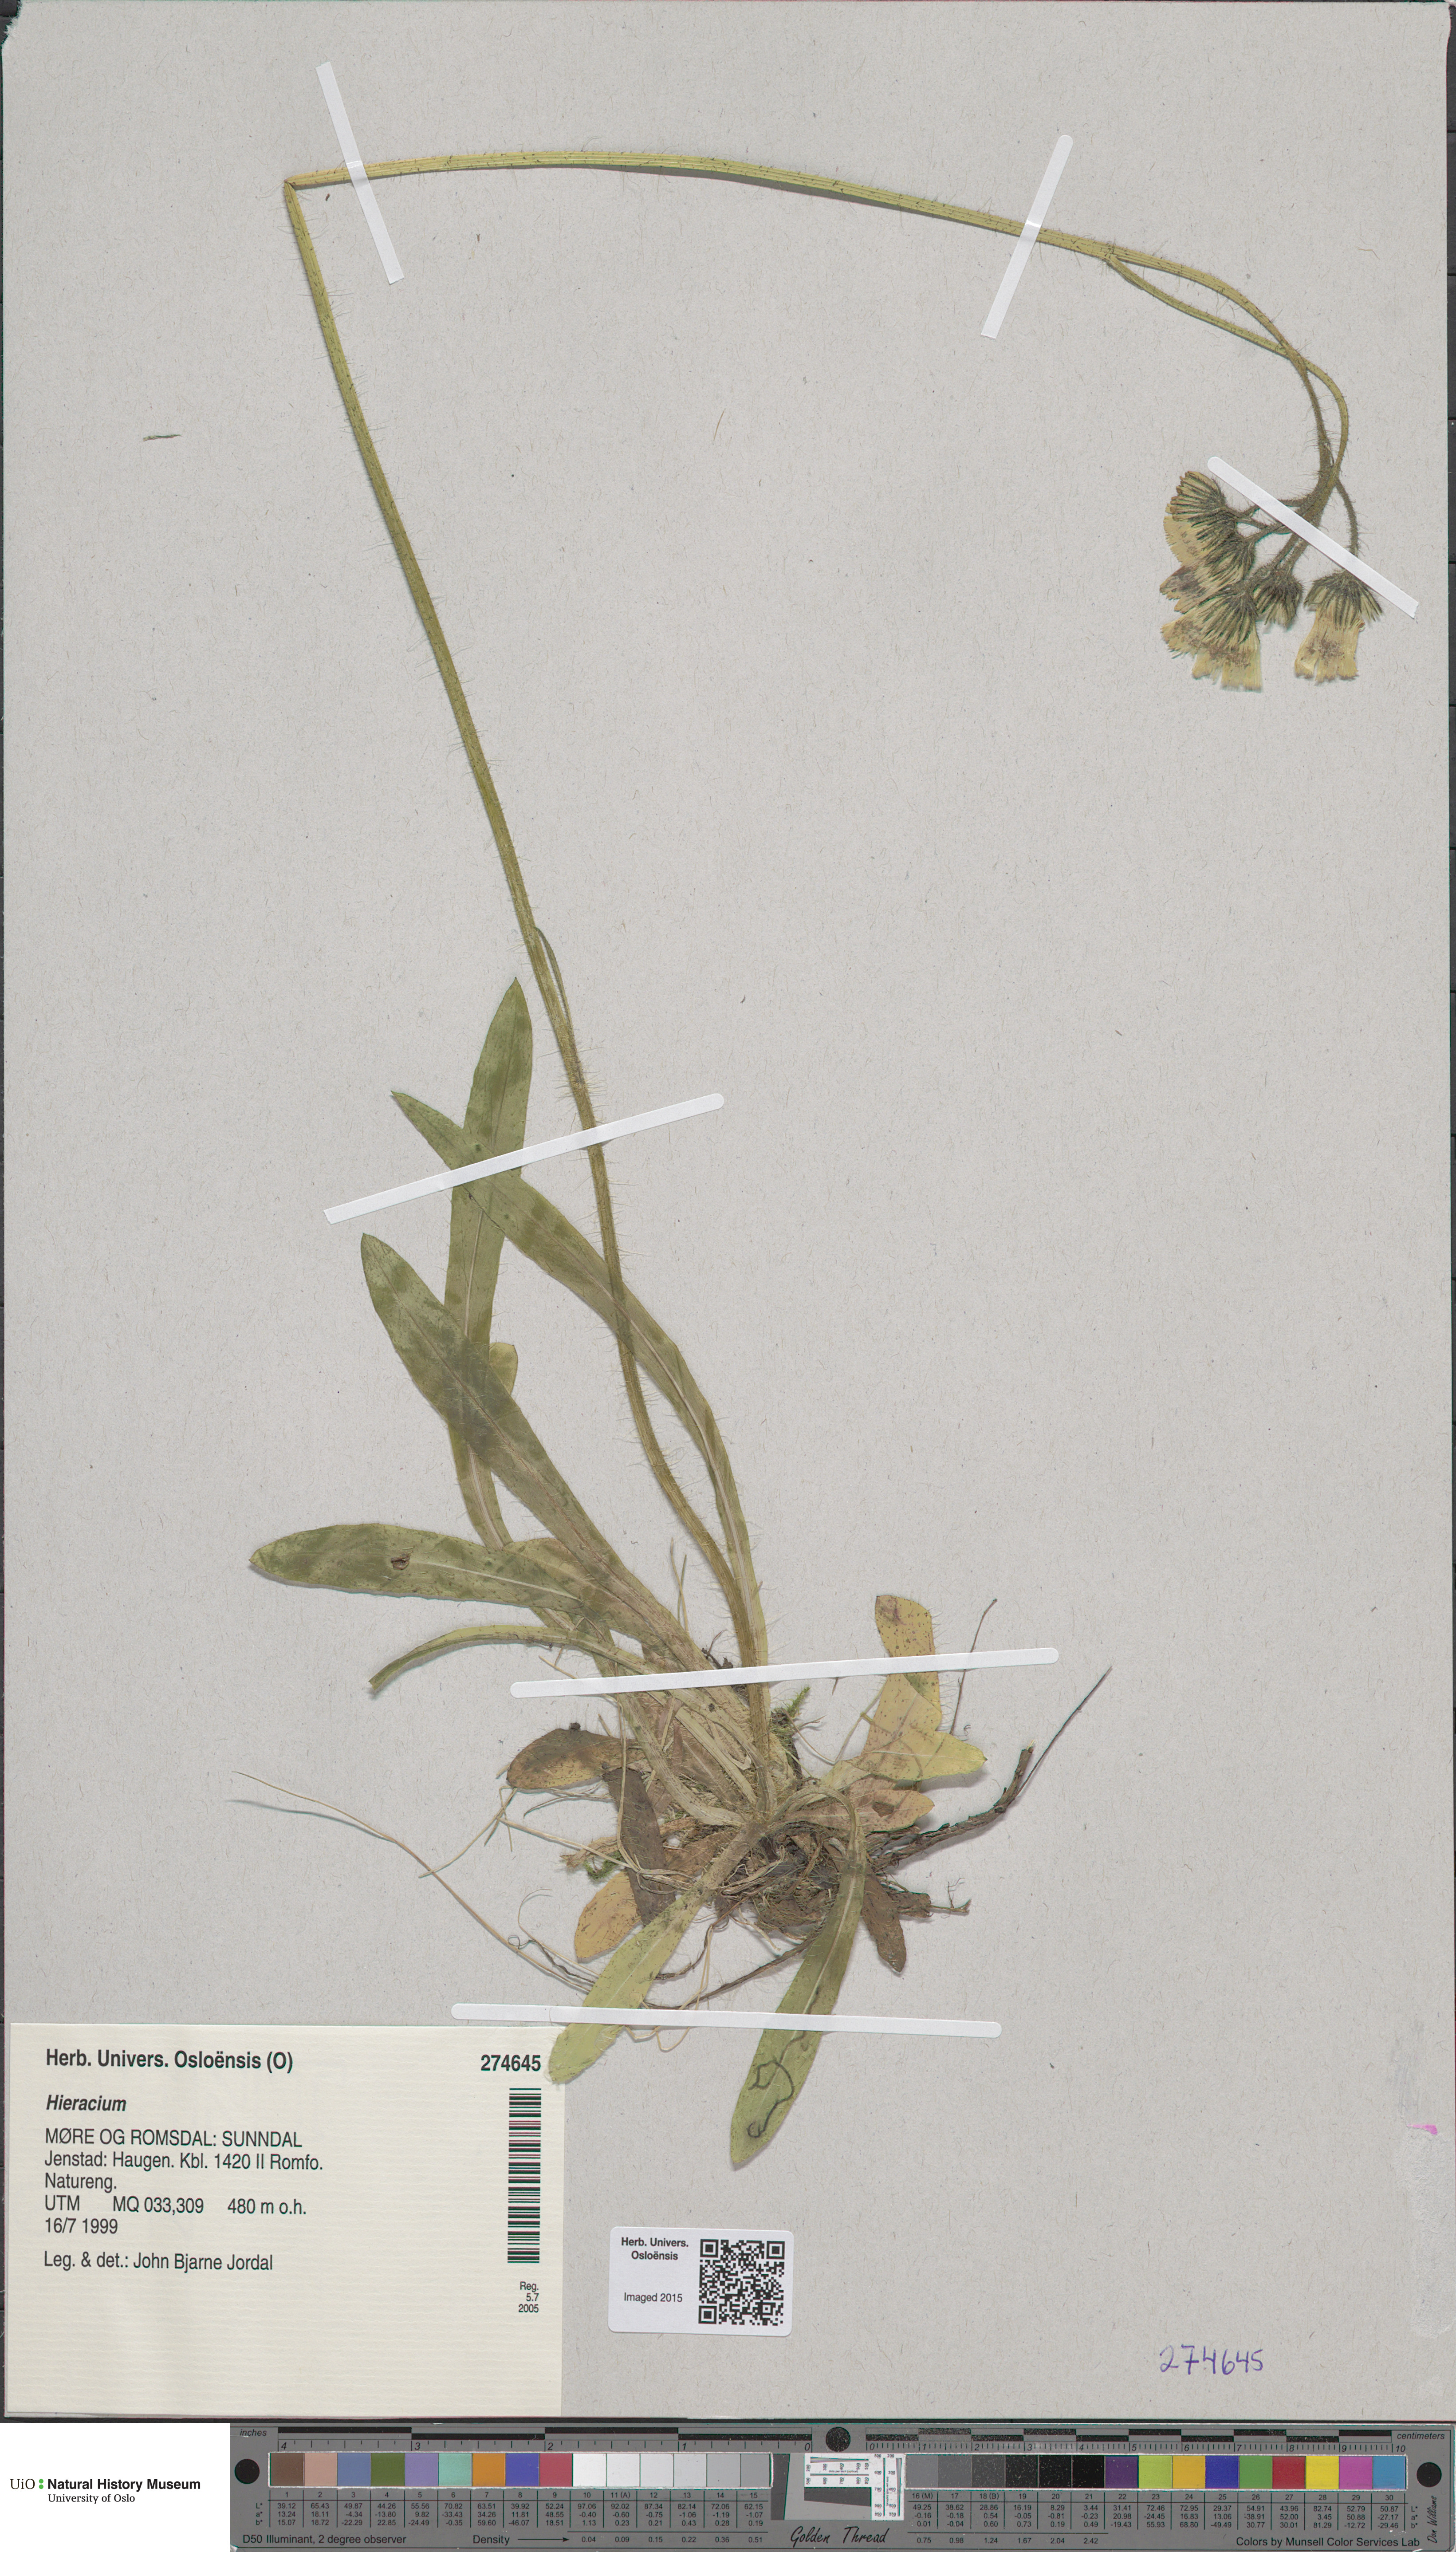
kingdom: Plantae
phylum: Tracheophyta
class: Magnoliopsida
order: Asterales
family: Asteraceae
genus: Hieracium
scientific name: Hieracium
